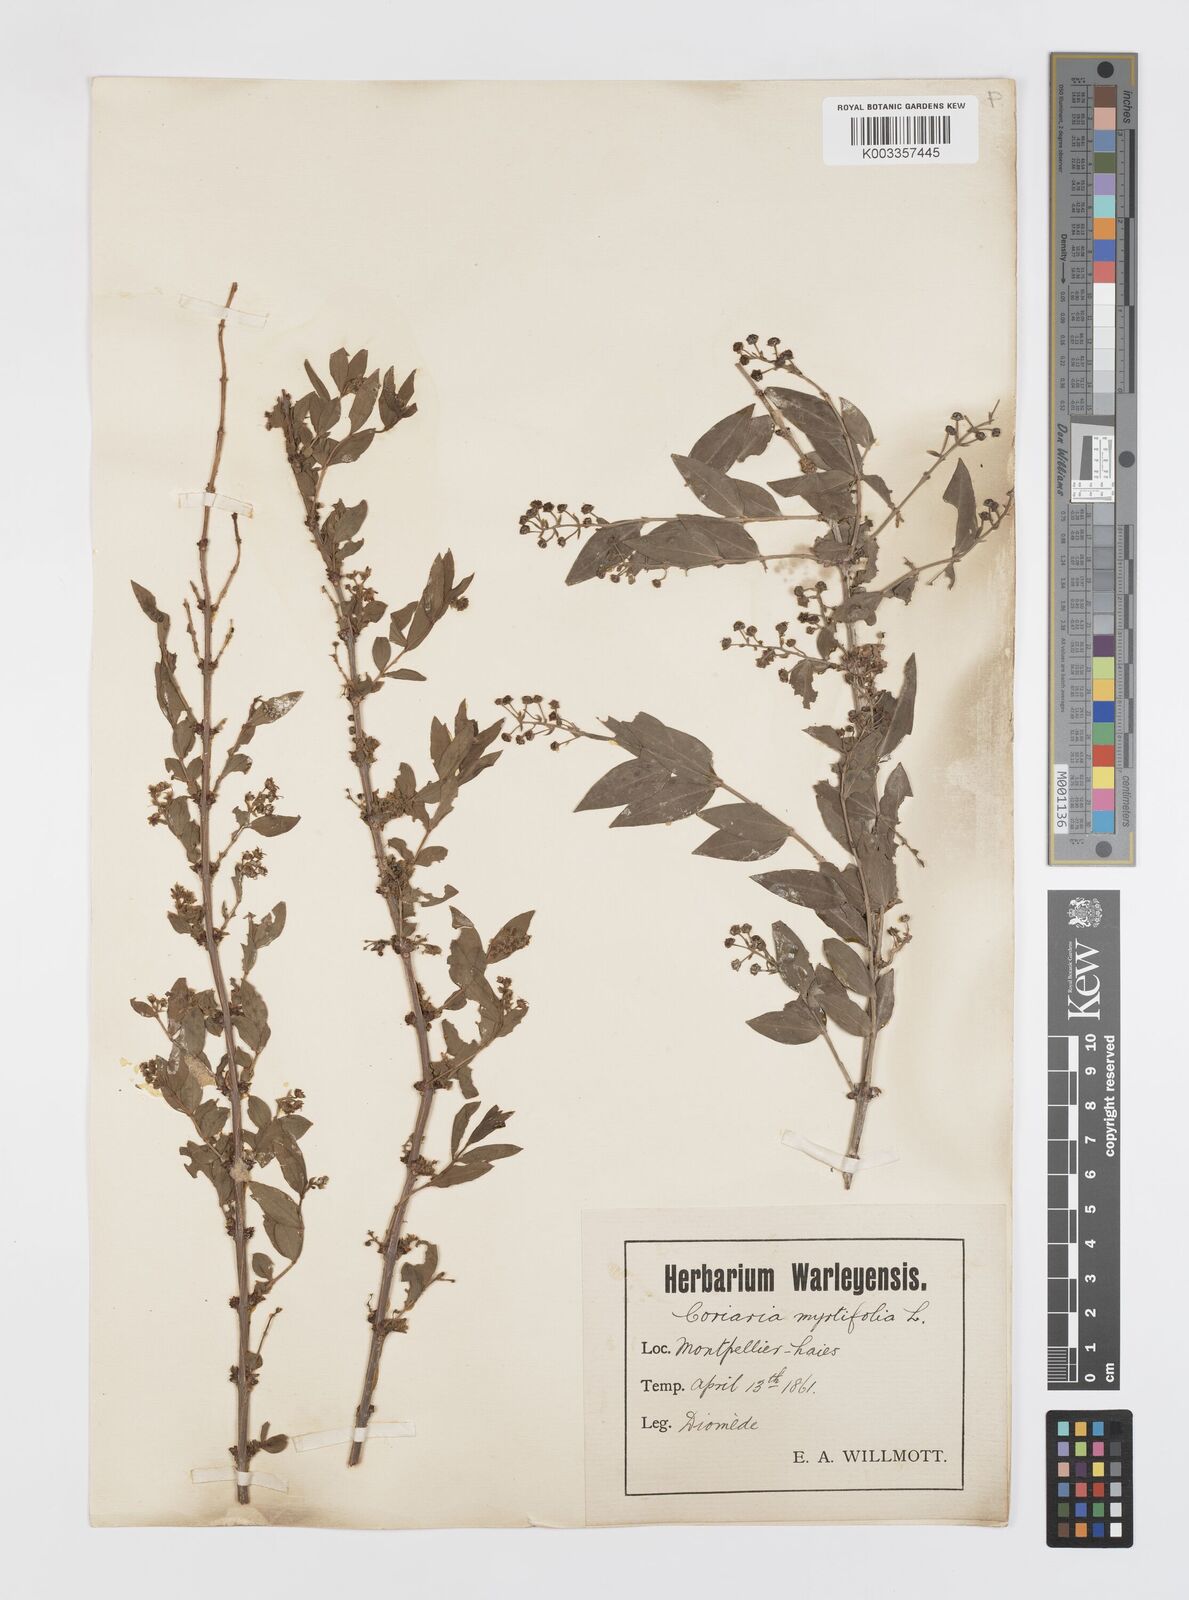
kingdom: Plantae
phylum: Tracheophyta
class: Magnoliopsida
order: Cucurbitales
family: Coriariaceae
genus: Coriaria
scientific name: Coriaria myrtifolia
